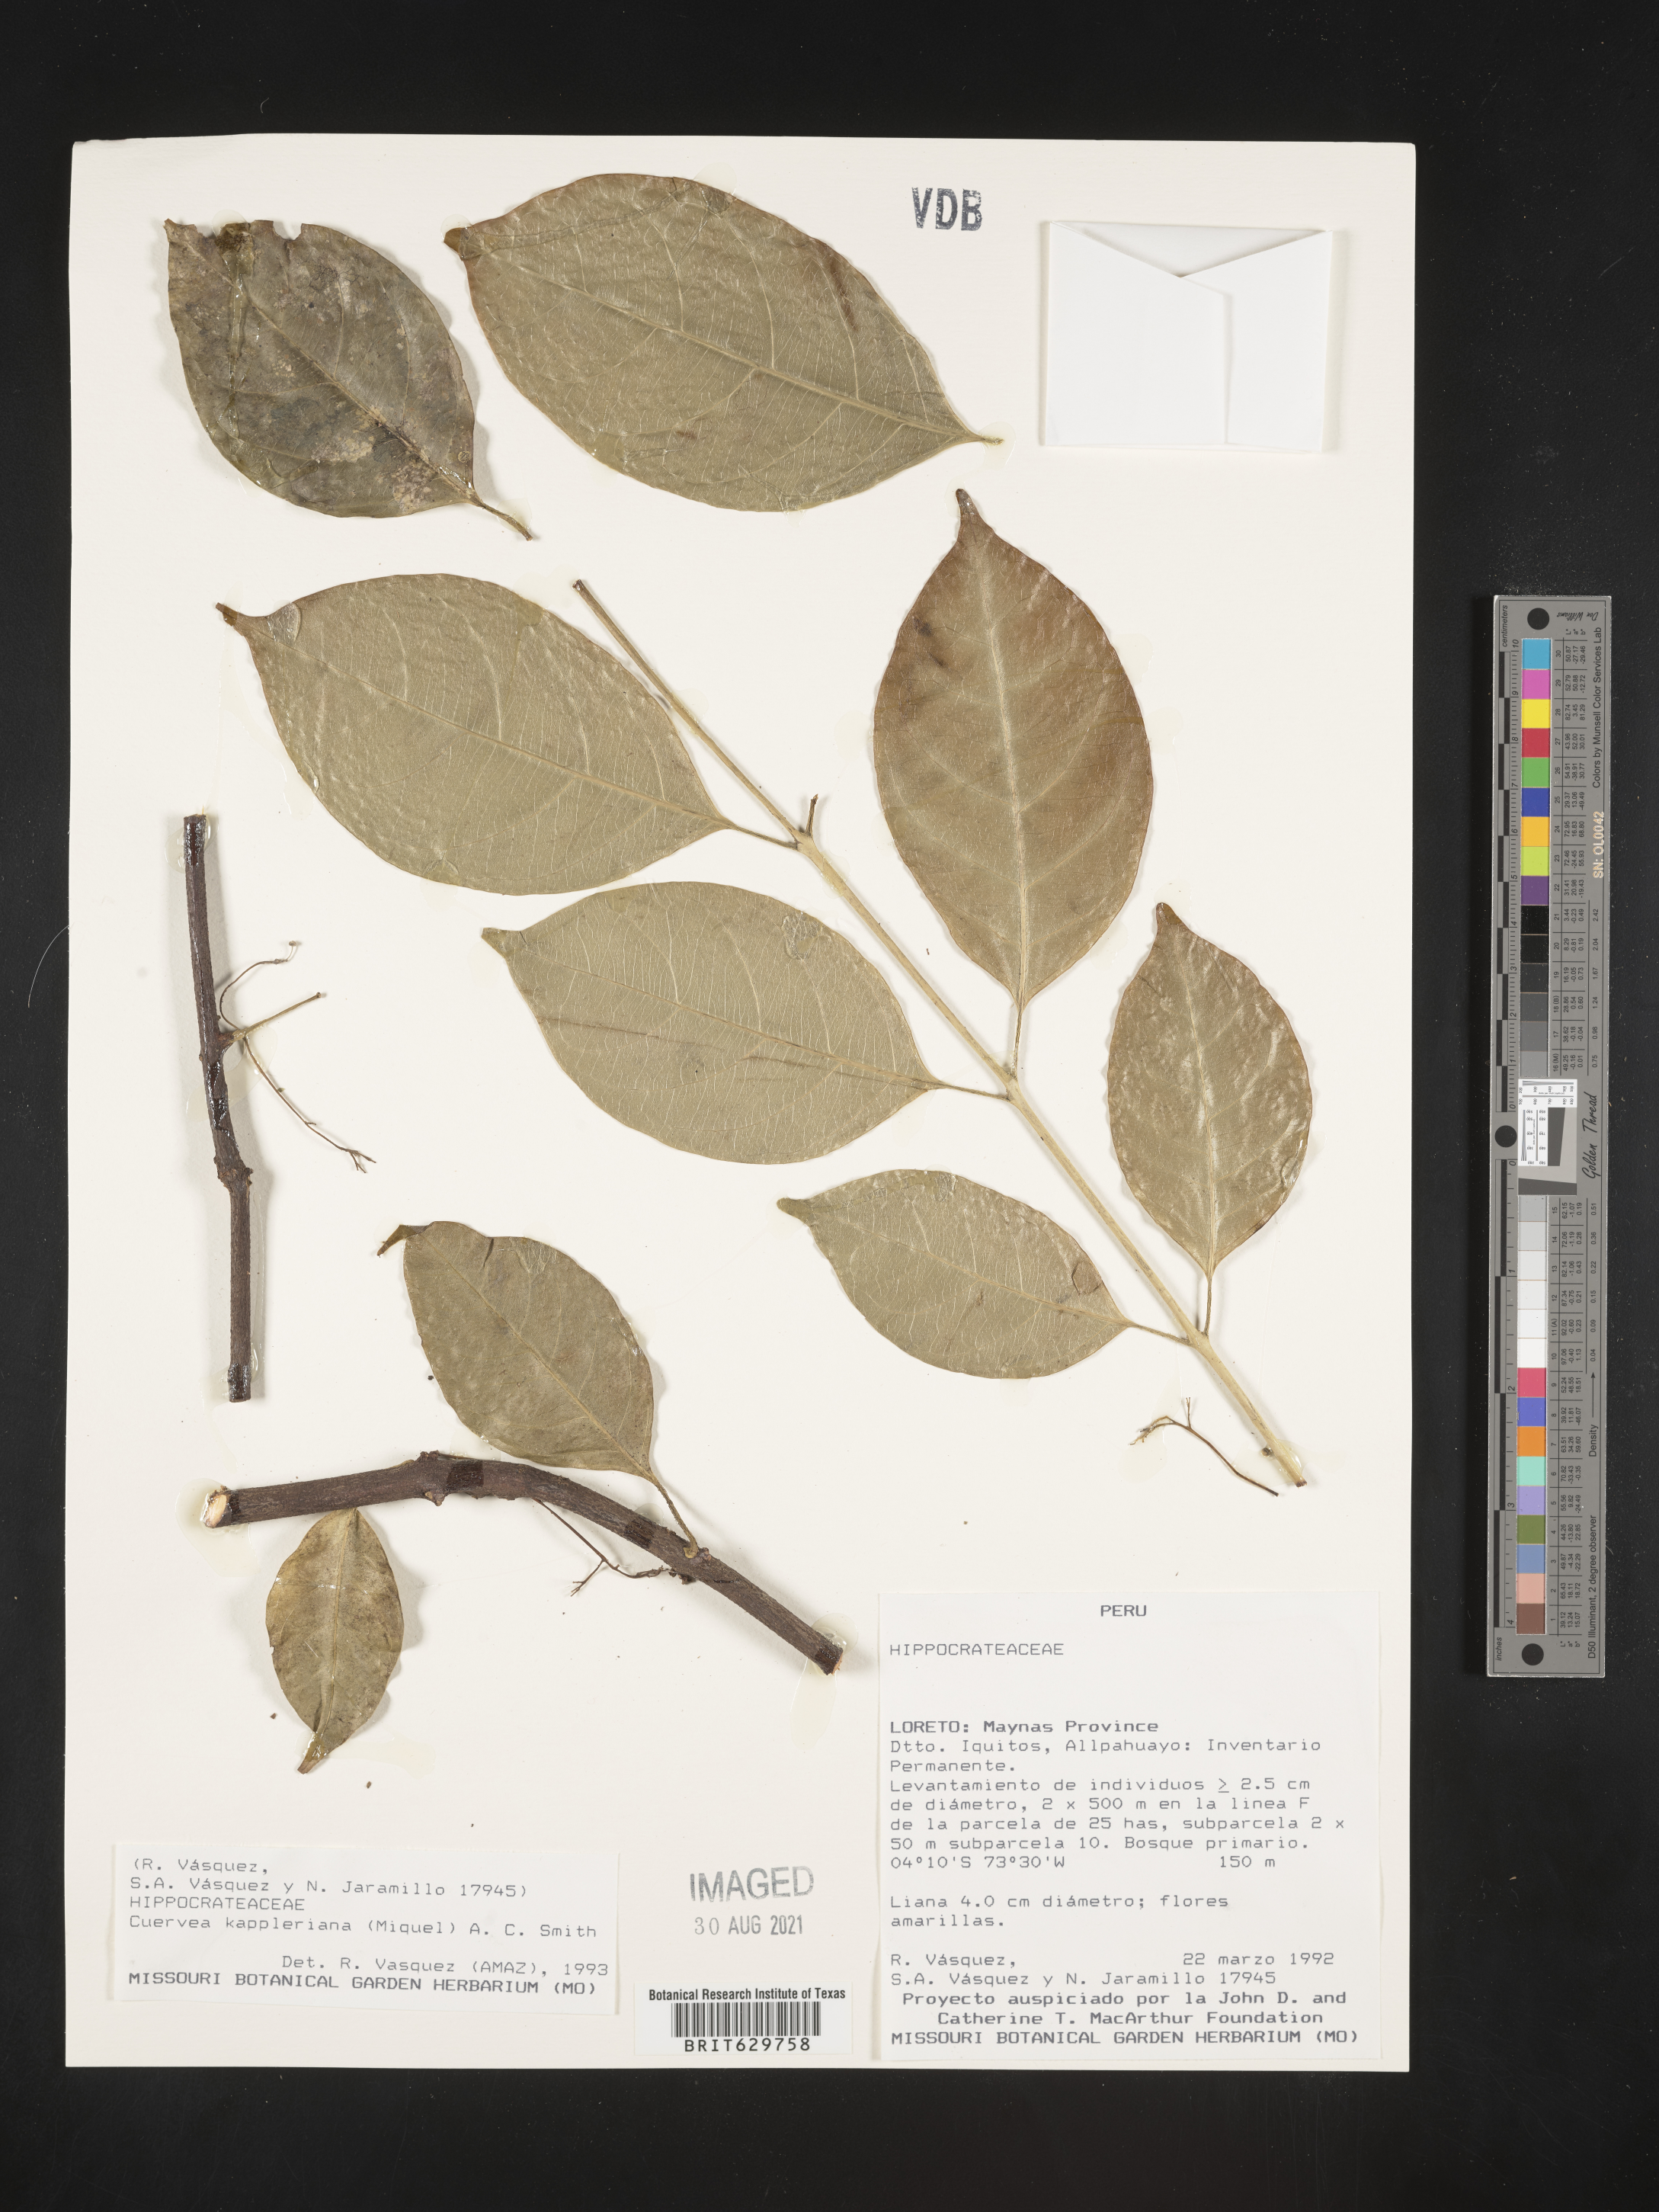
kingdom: Plantae
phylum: Tracheophyta
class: Magnoliopsida
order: Celastrales
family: Celastraceae
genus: Cuervea
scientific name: Cuervea kappleriana
